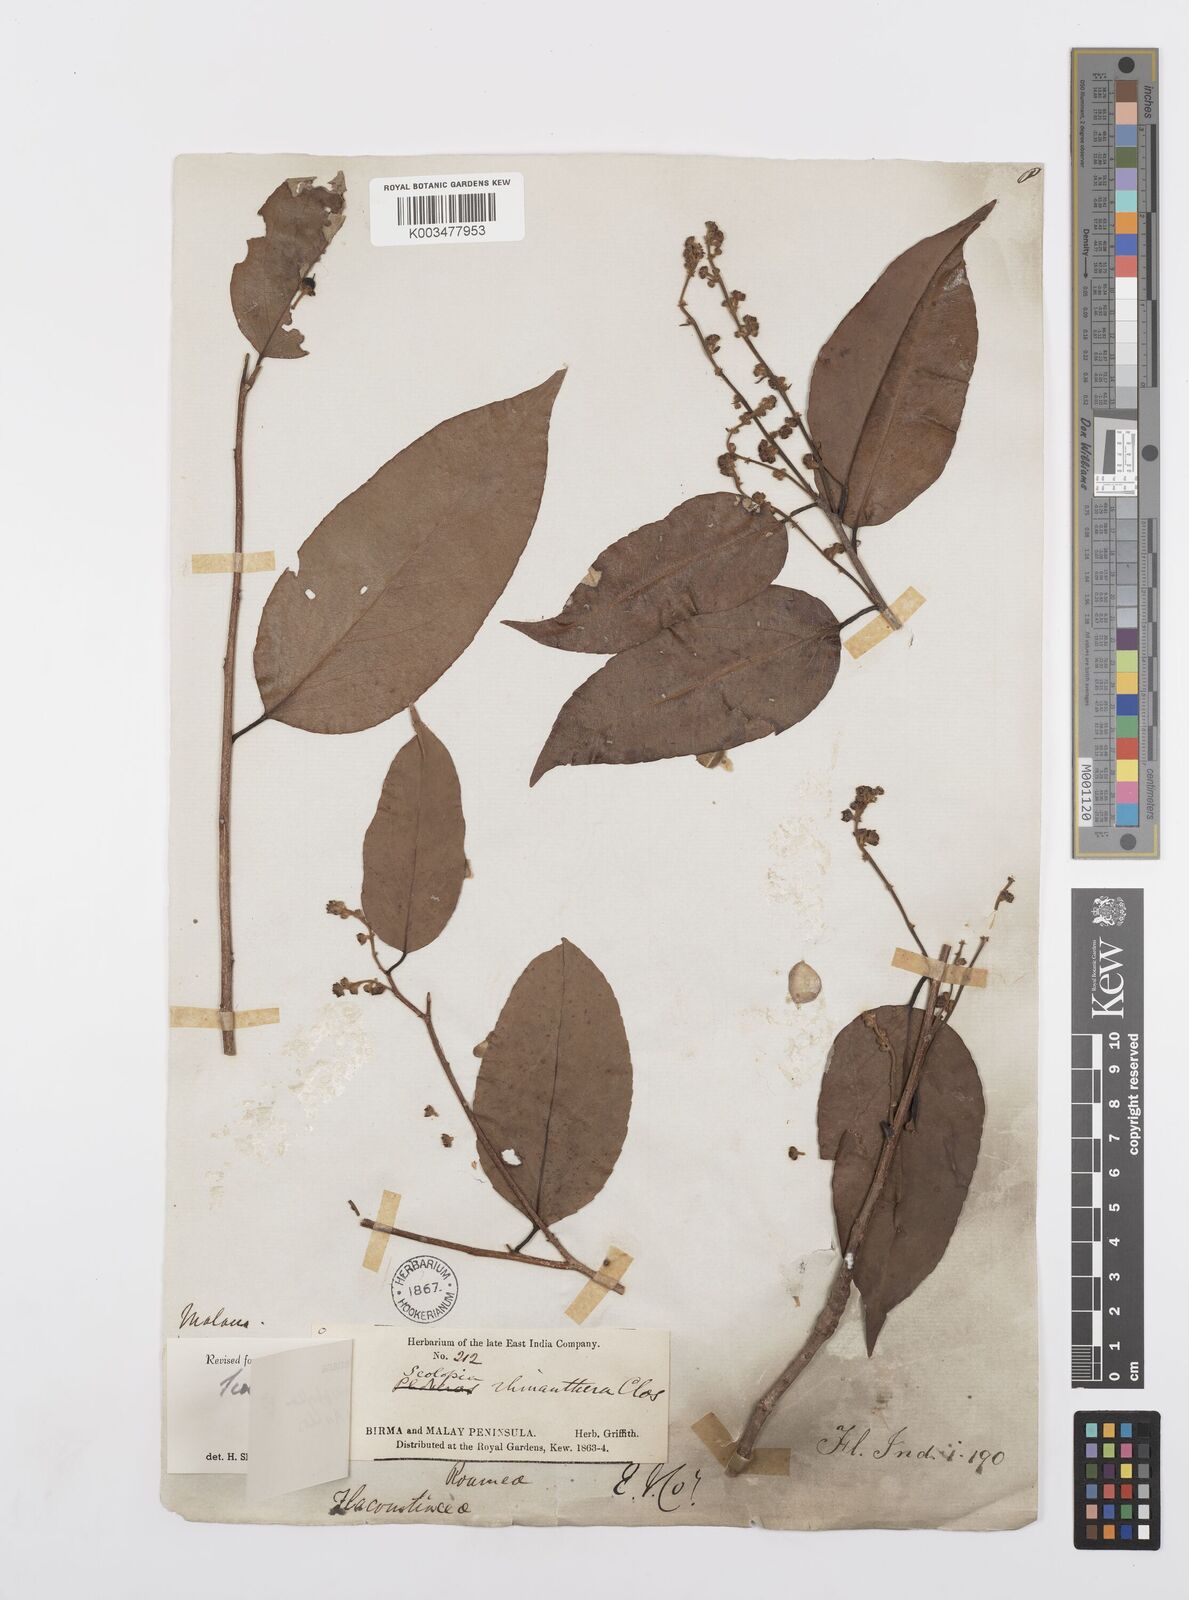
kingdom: Plantae
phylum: Tracheophyta
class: Magnoliopsida
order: Malpighiales
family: Salicaceae
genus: Scolopia
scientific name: Scolopia macrophylla
